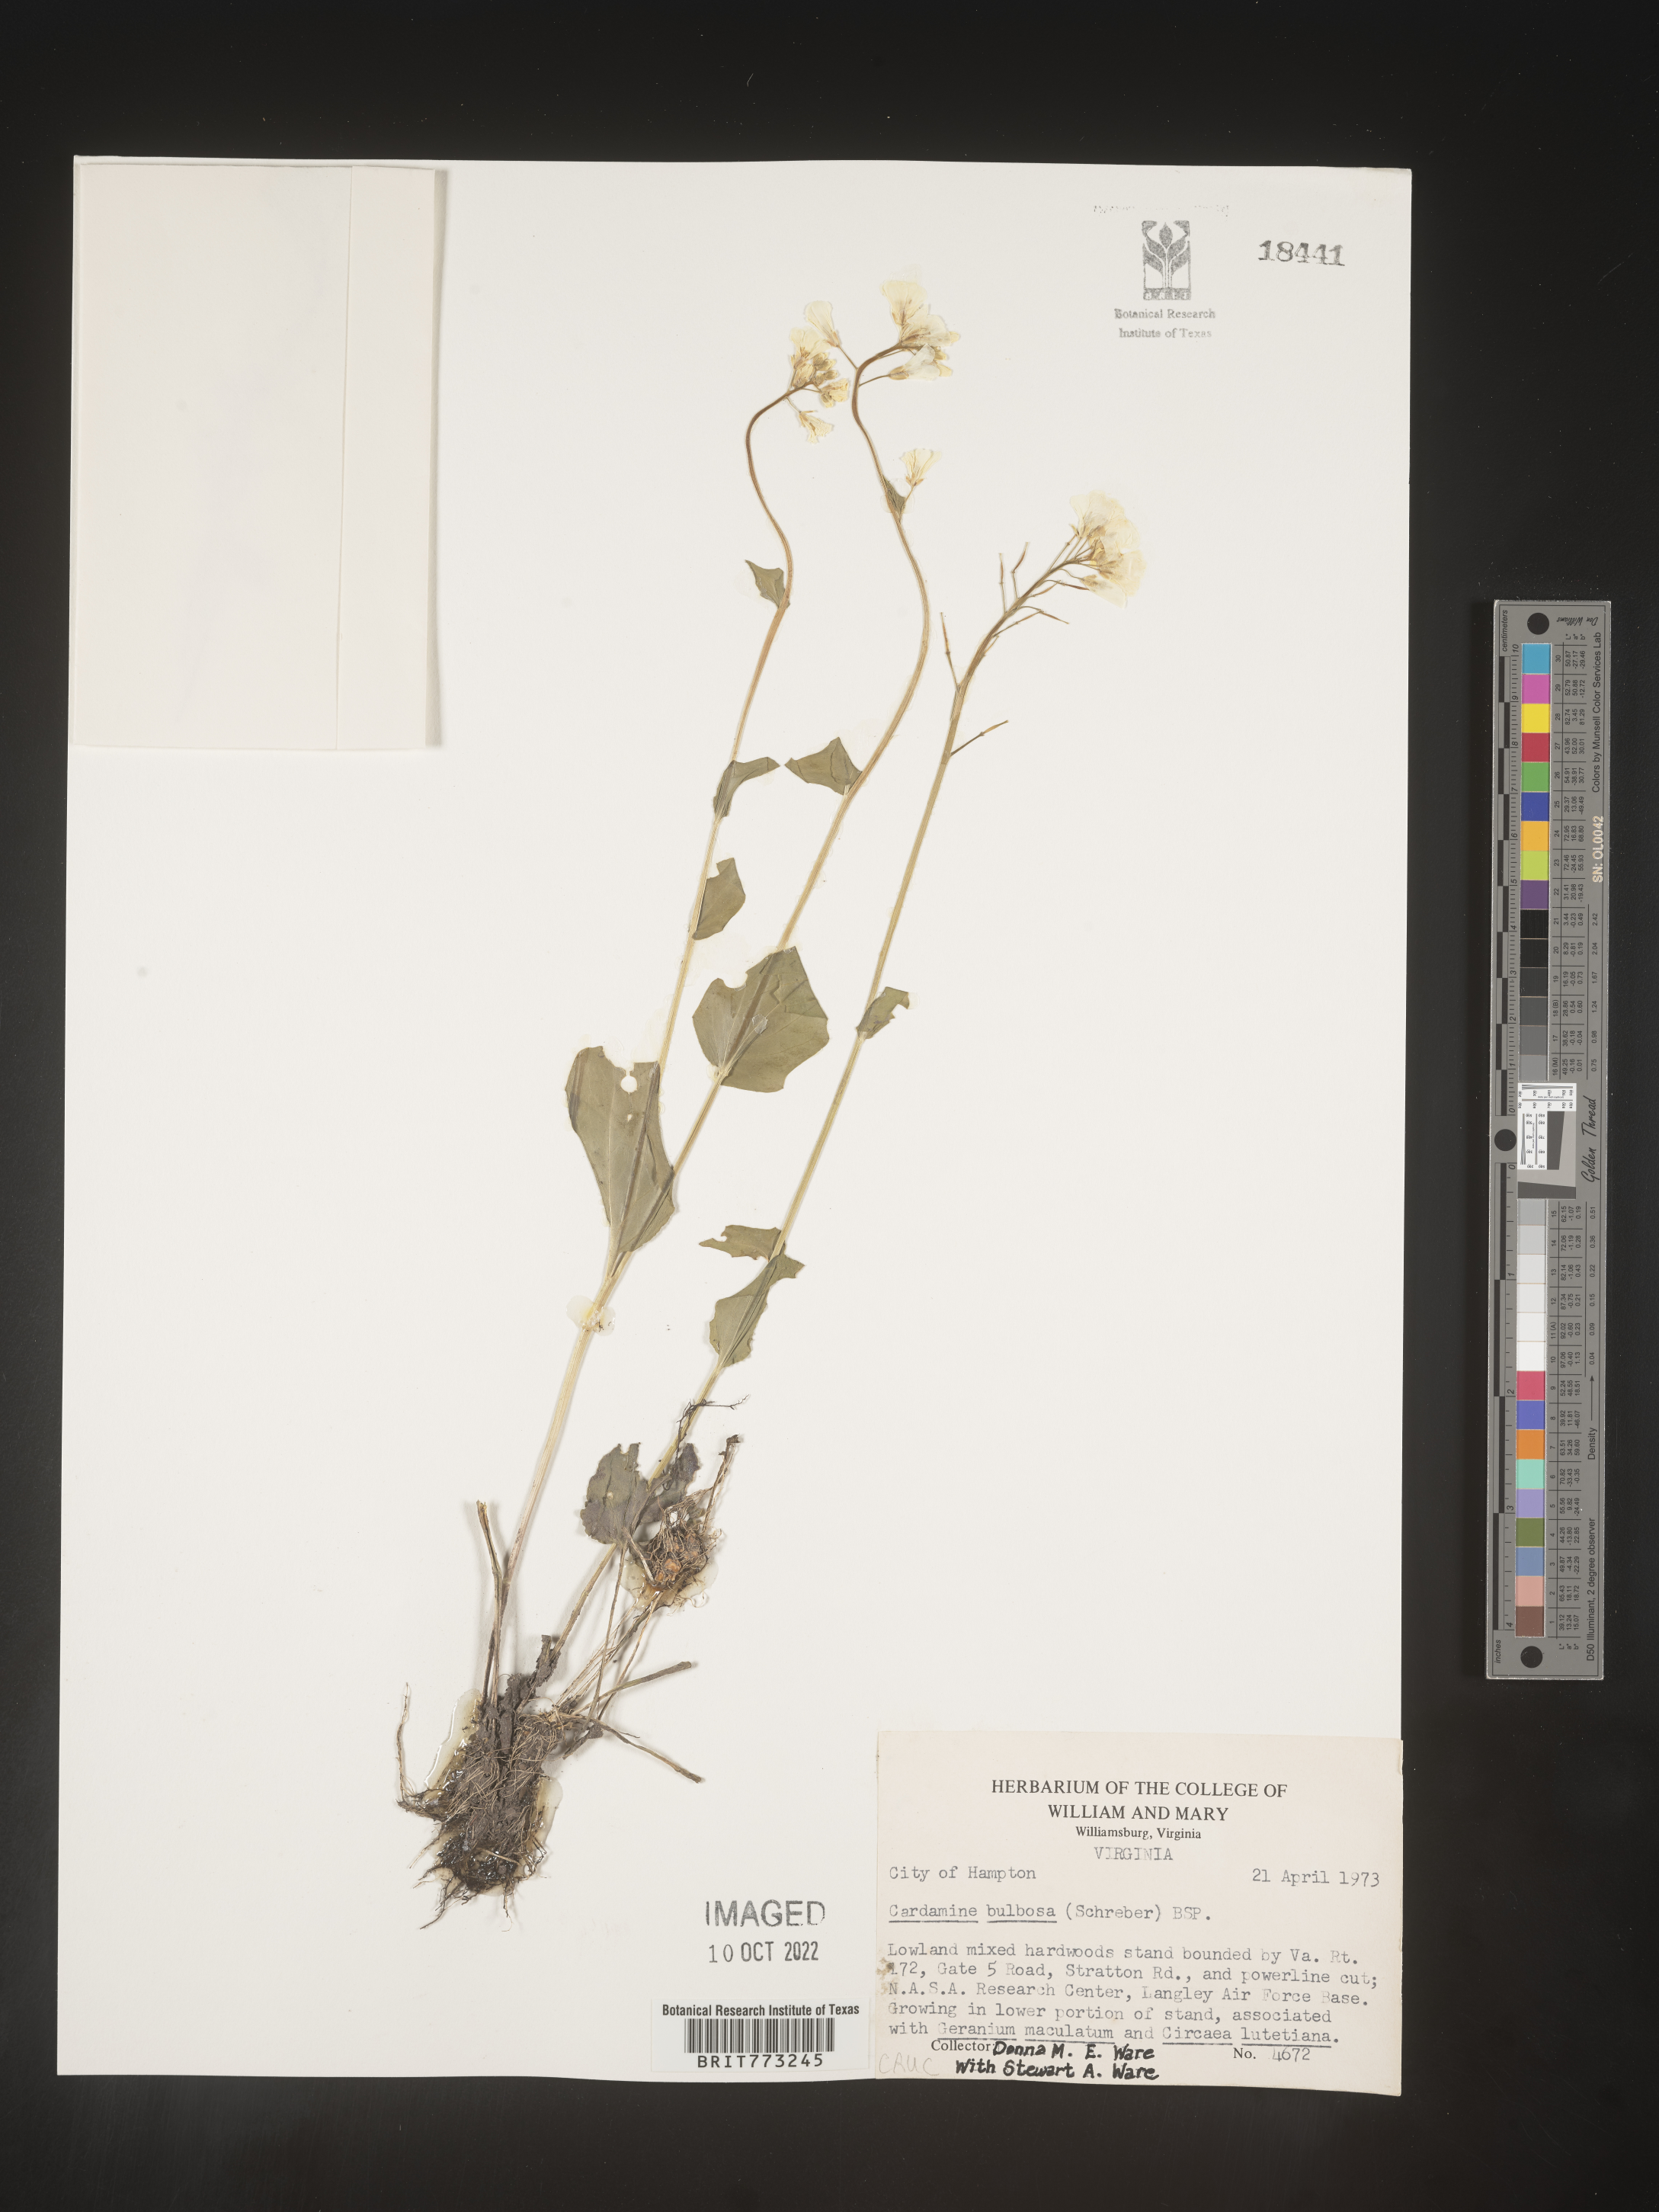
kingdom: Plantae
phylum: Tracheophyta
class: Magnoliopsida
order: Brassicales
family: Brassicaceae
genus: Cardamine
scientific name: Cardamine bulbosa
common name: Spring cress
